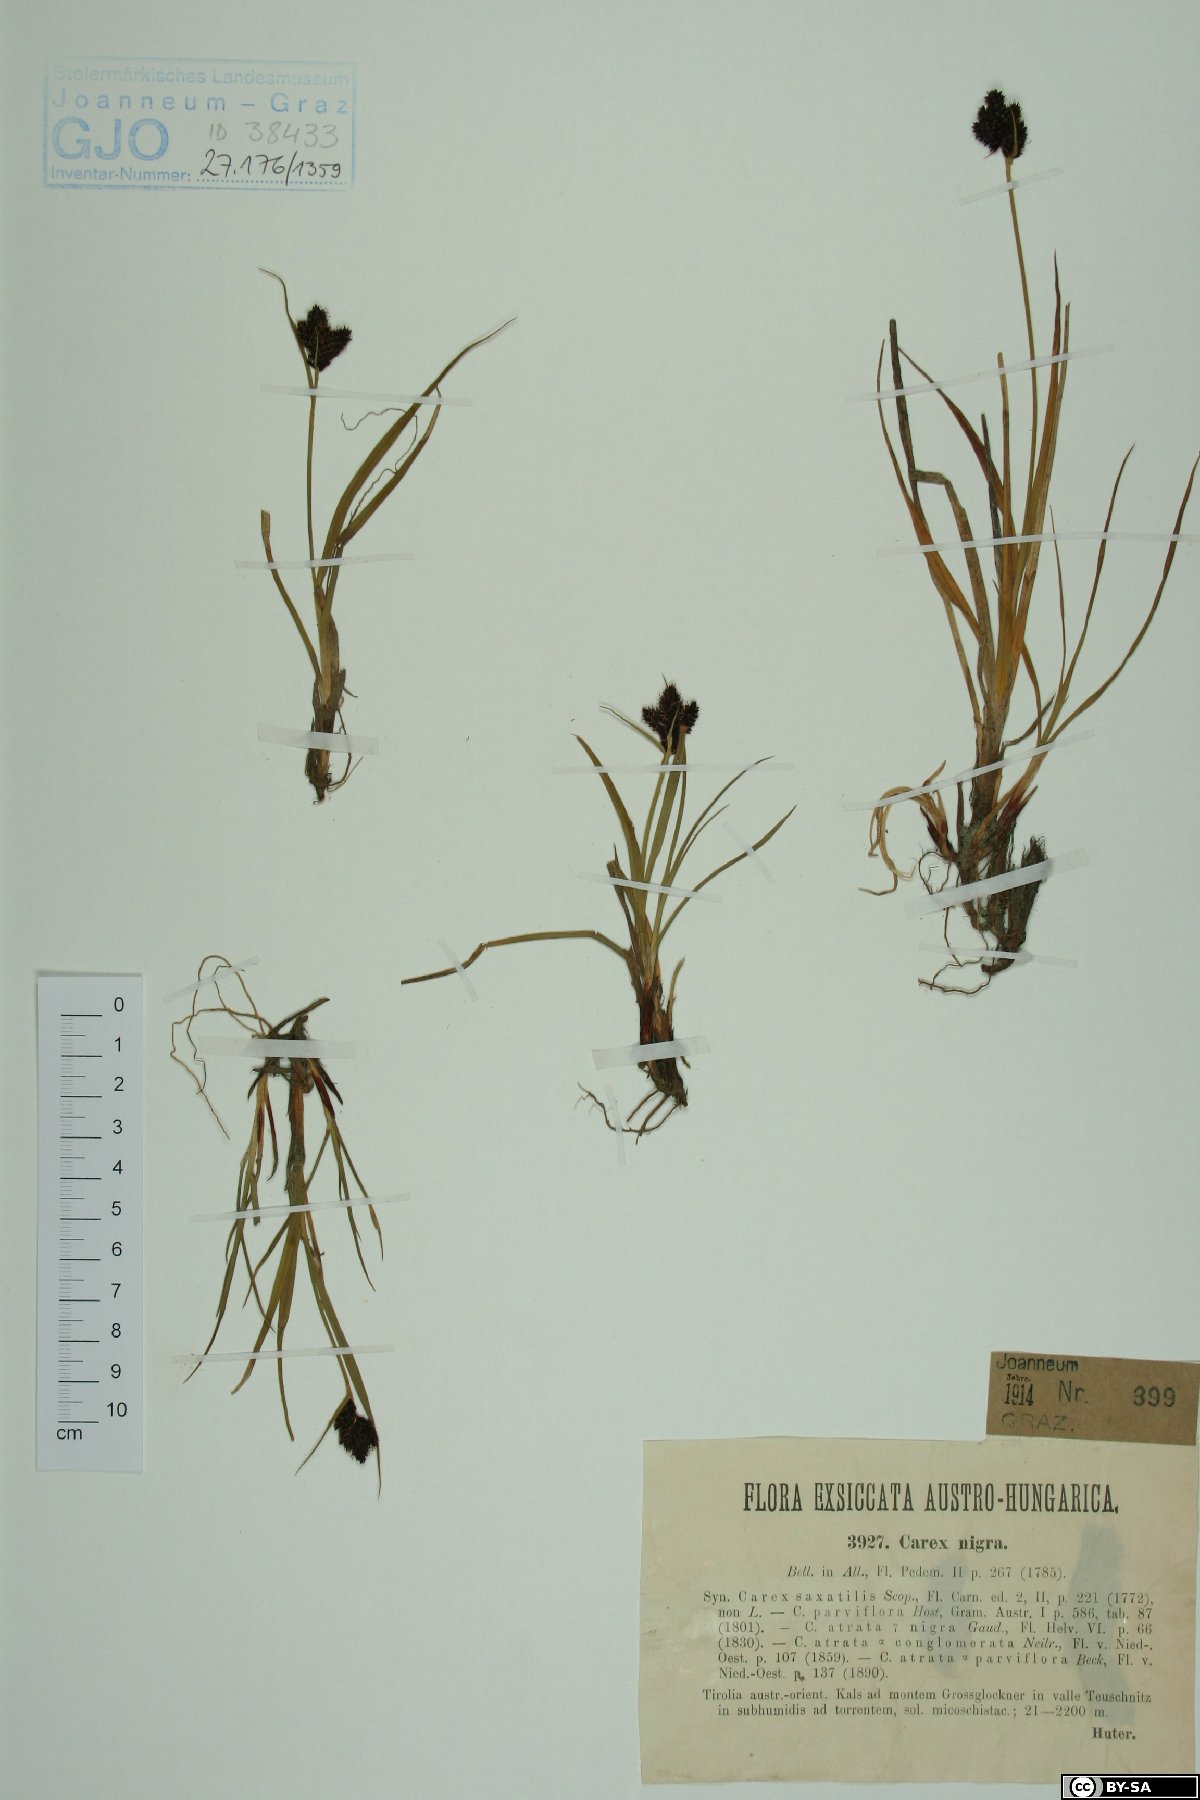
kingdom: Plantae
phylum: Tracheophyta
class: Liliopsida
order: Poales
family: Cyperaceae
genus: Carex
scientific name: Carex nigra
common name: Common sedge
